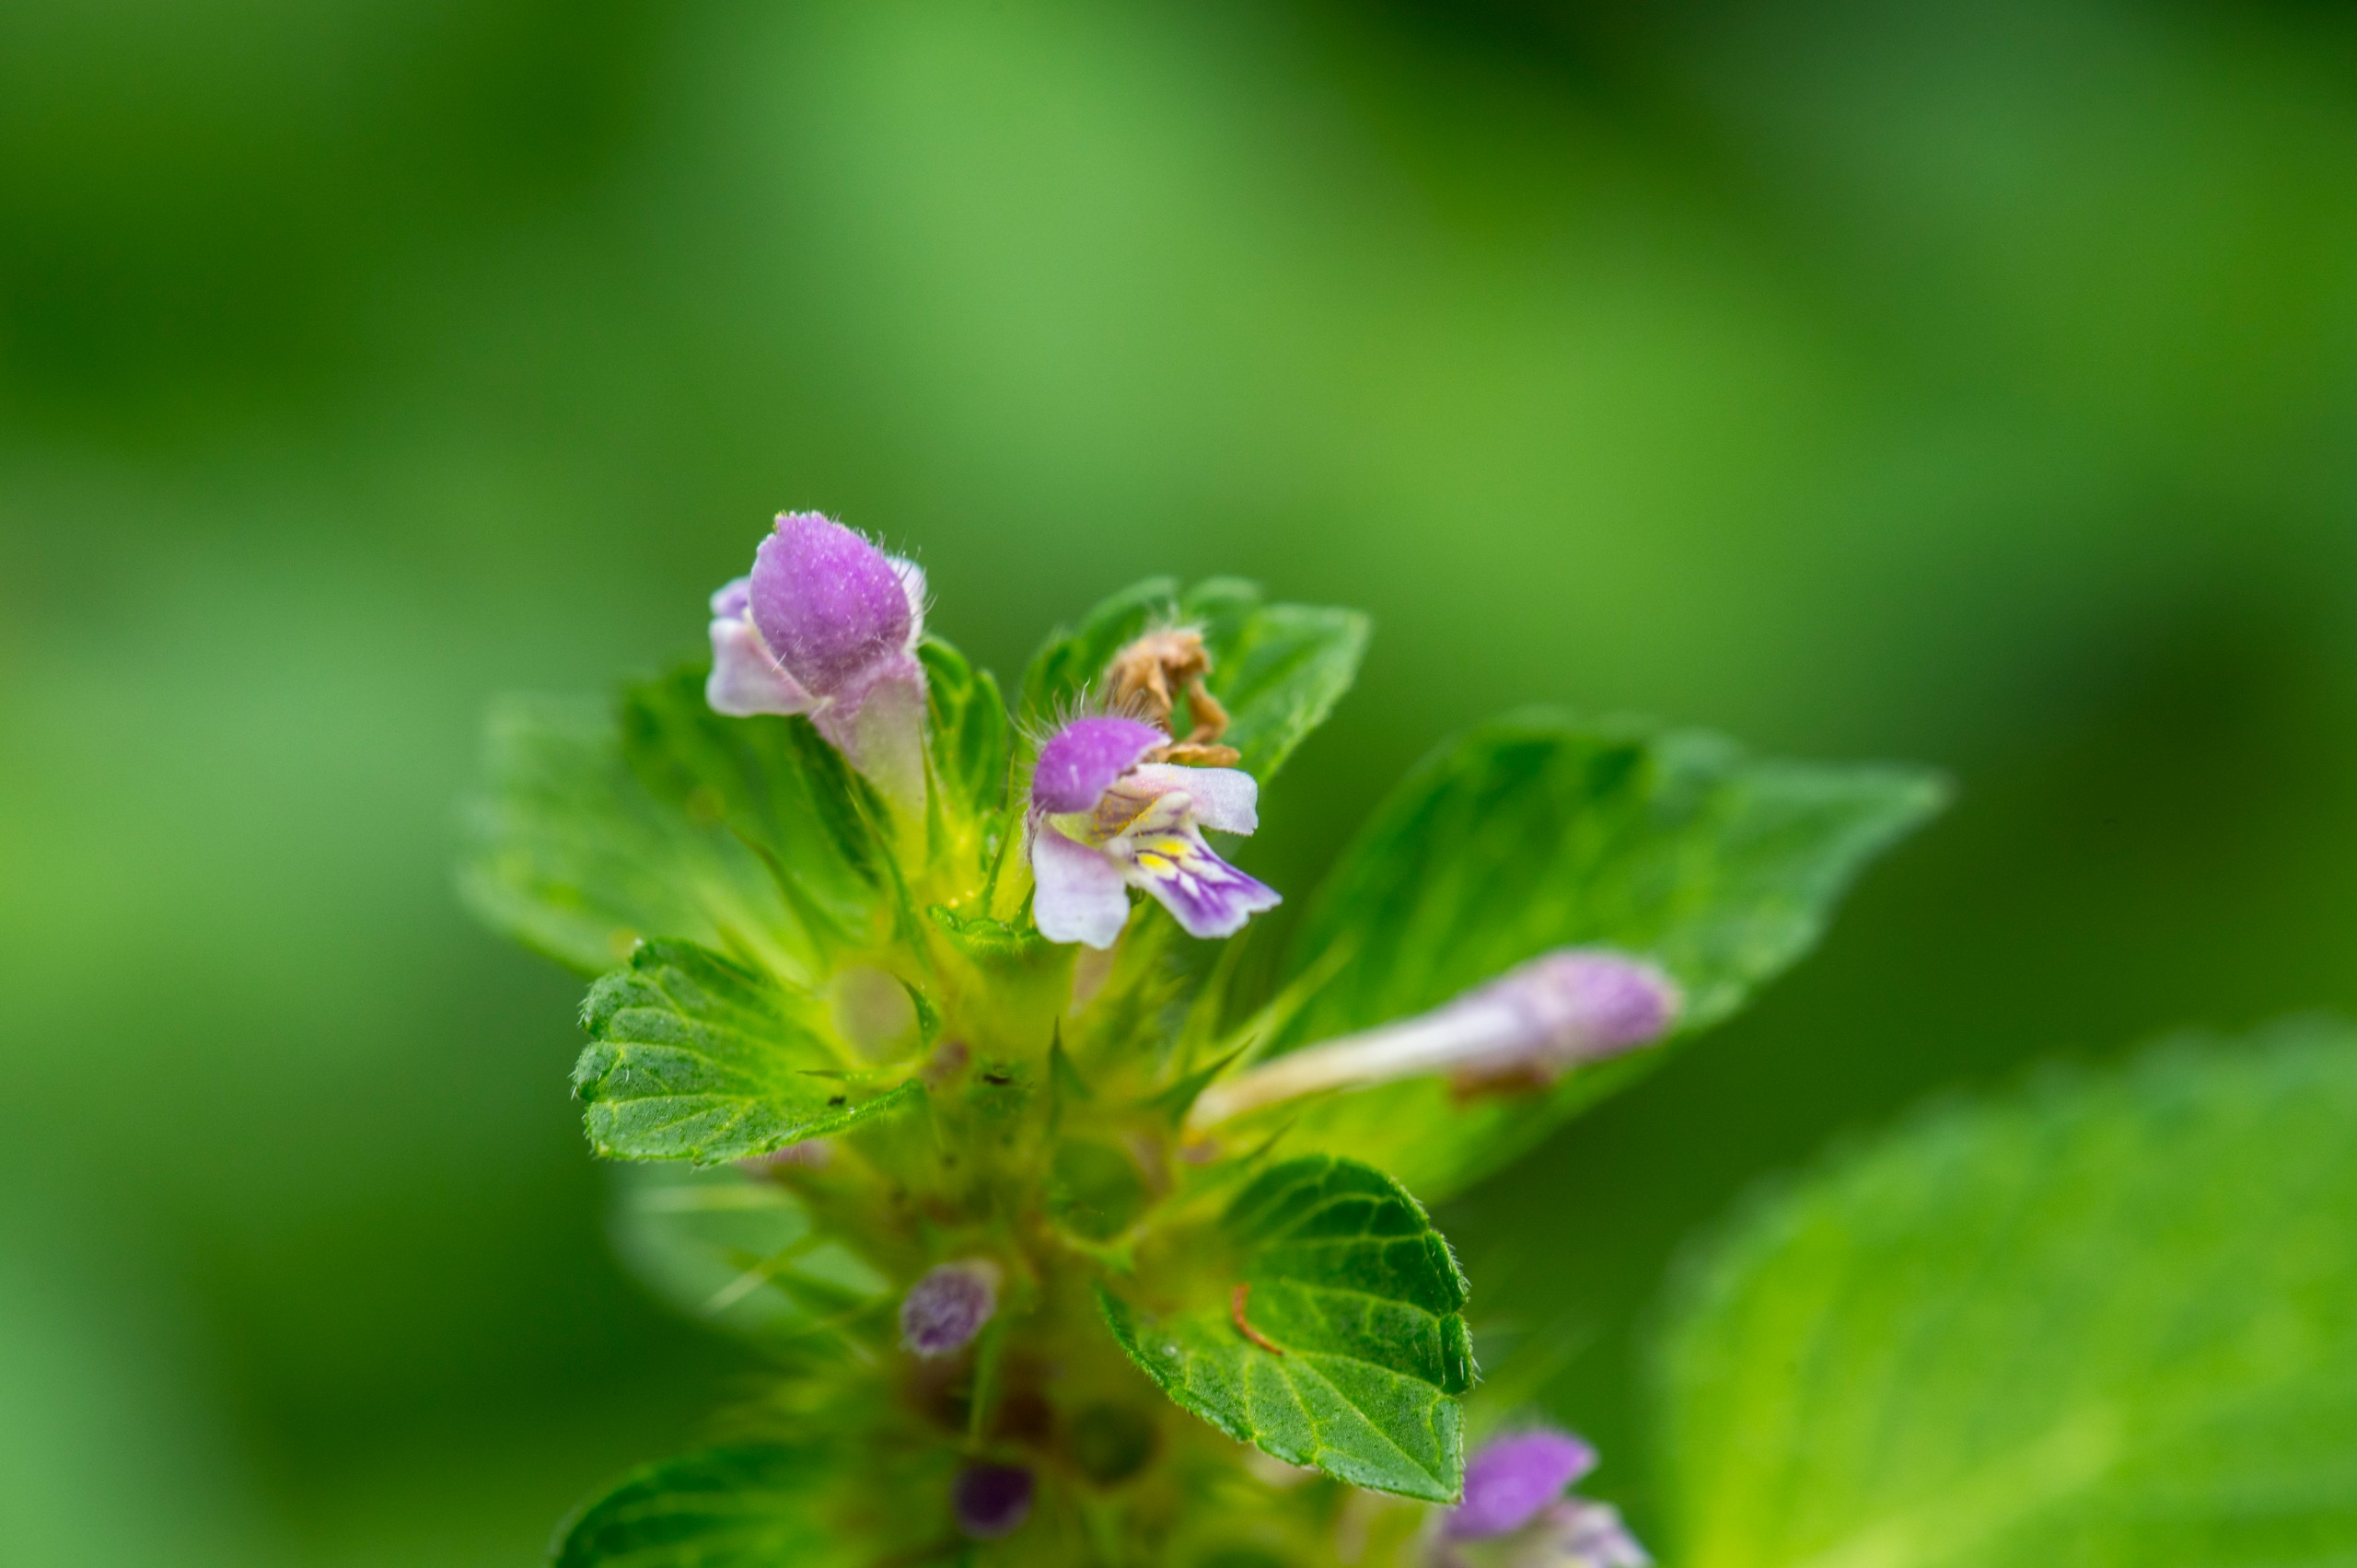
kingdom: Plantae
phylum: Tracheophyta
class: Magnoliopsida
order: Lamiales
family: Lamiaceae
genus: Galeopsis
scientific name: Galeopsis bifida
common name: Skov-hanekro
